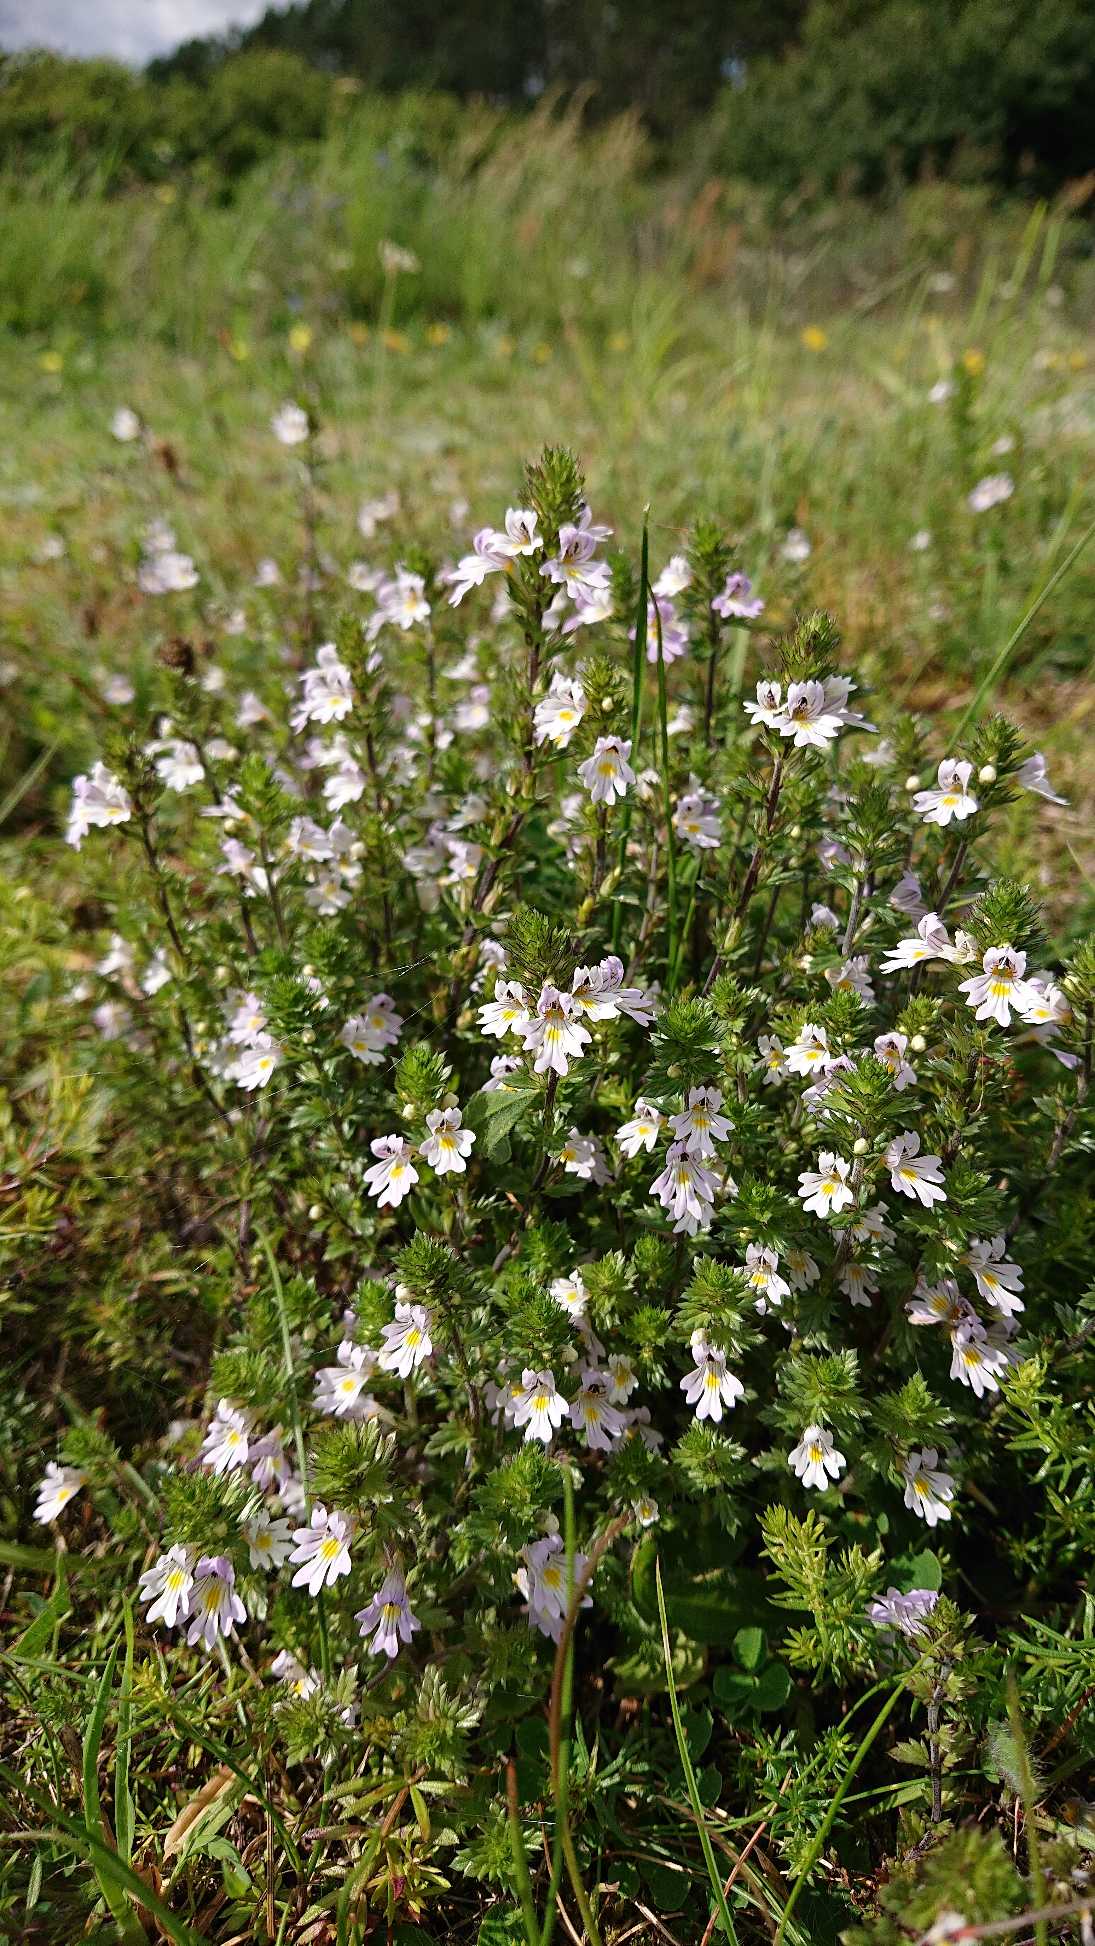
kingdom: Plantae
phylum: Tracheophyta
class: Magnoliopsida
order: Lamiales
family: Orobanchaceae
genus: Euphrasia
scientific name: Euphrasia stricta
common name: Spids øjentrøst
